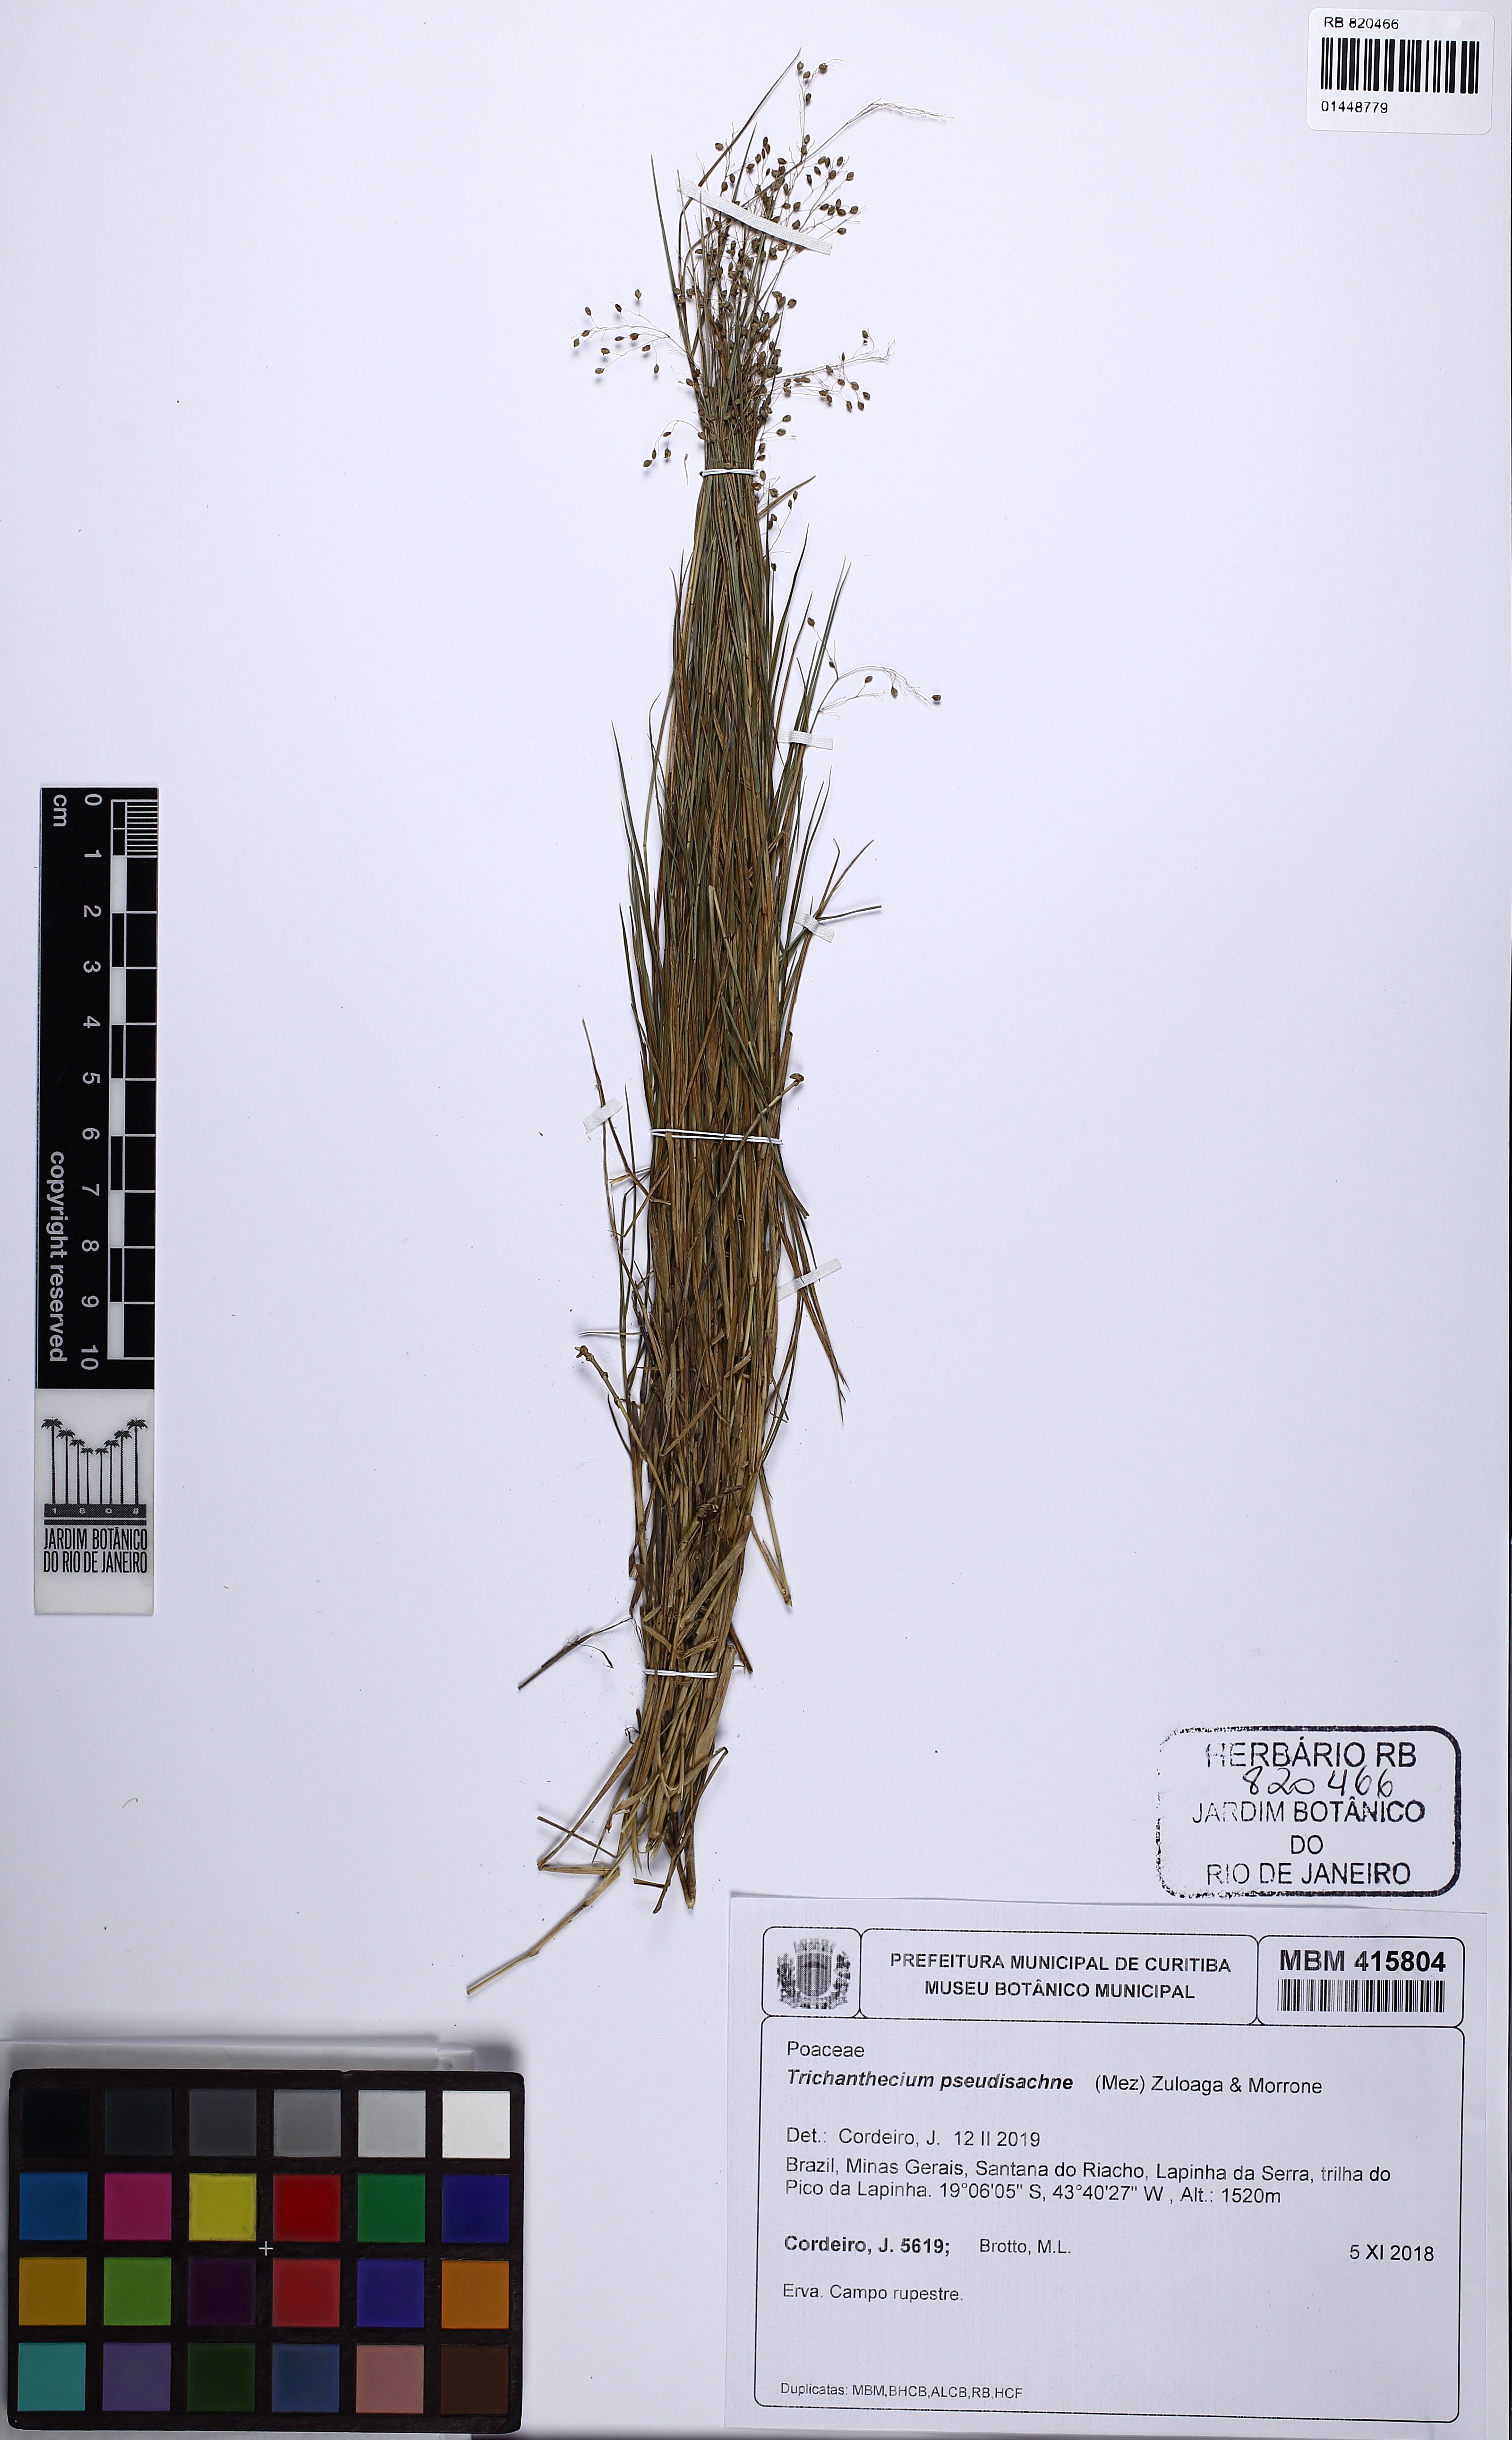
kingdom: Plantae
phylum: Tracheophyta
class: Liliopsida
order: Poales
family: Poaceae
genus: Trichanthecium
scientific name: Trichanthecium pseudisachne
